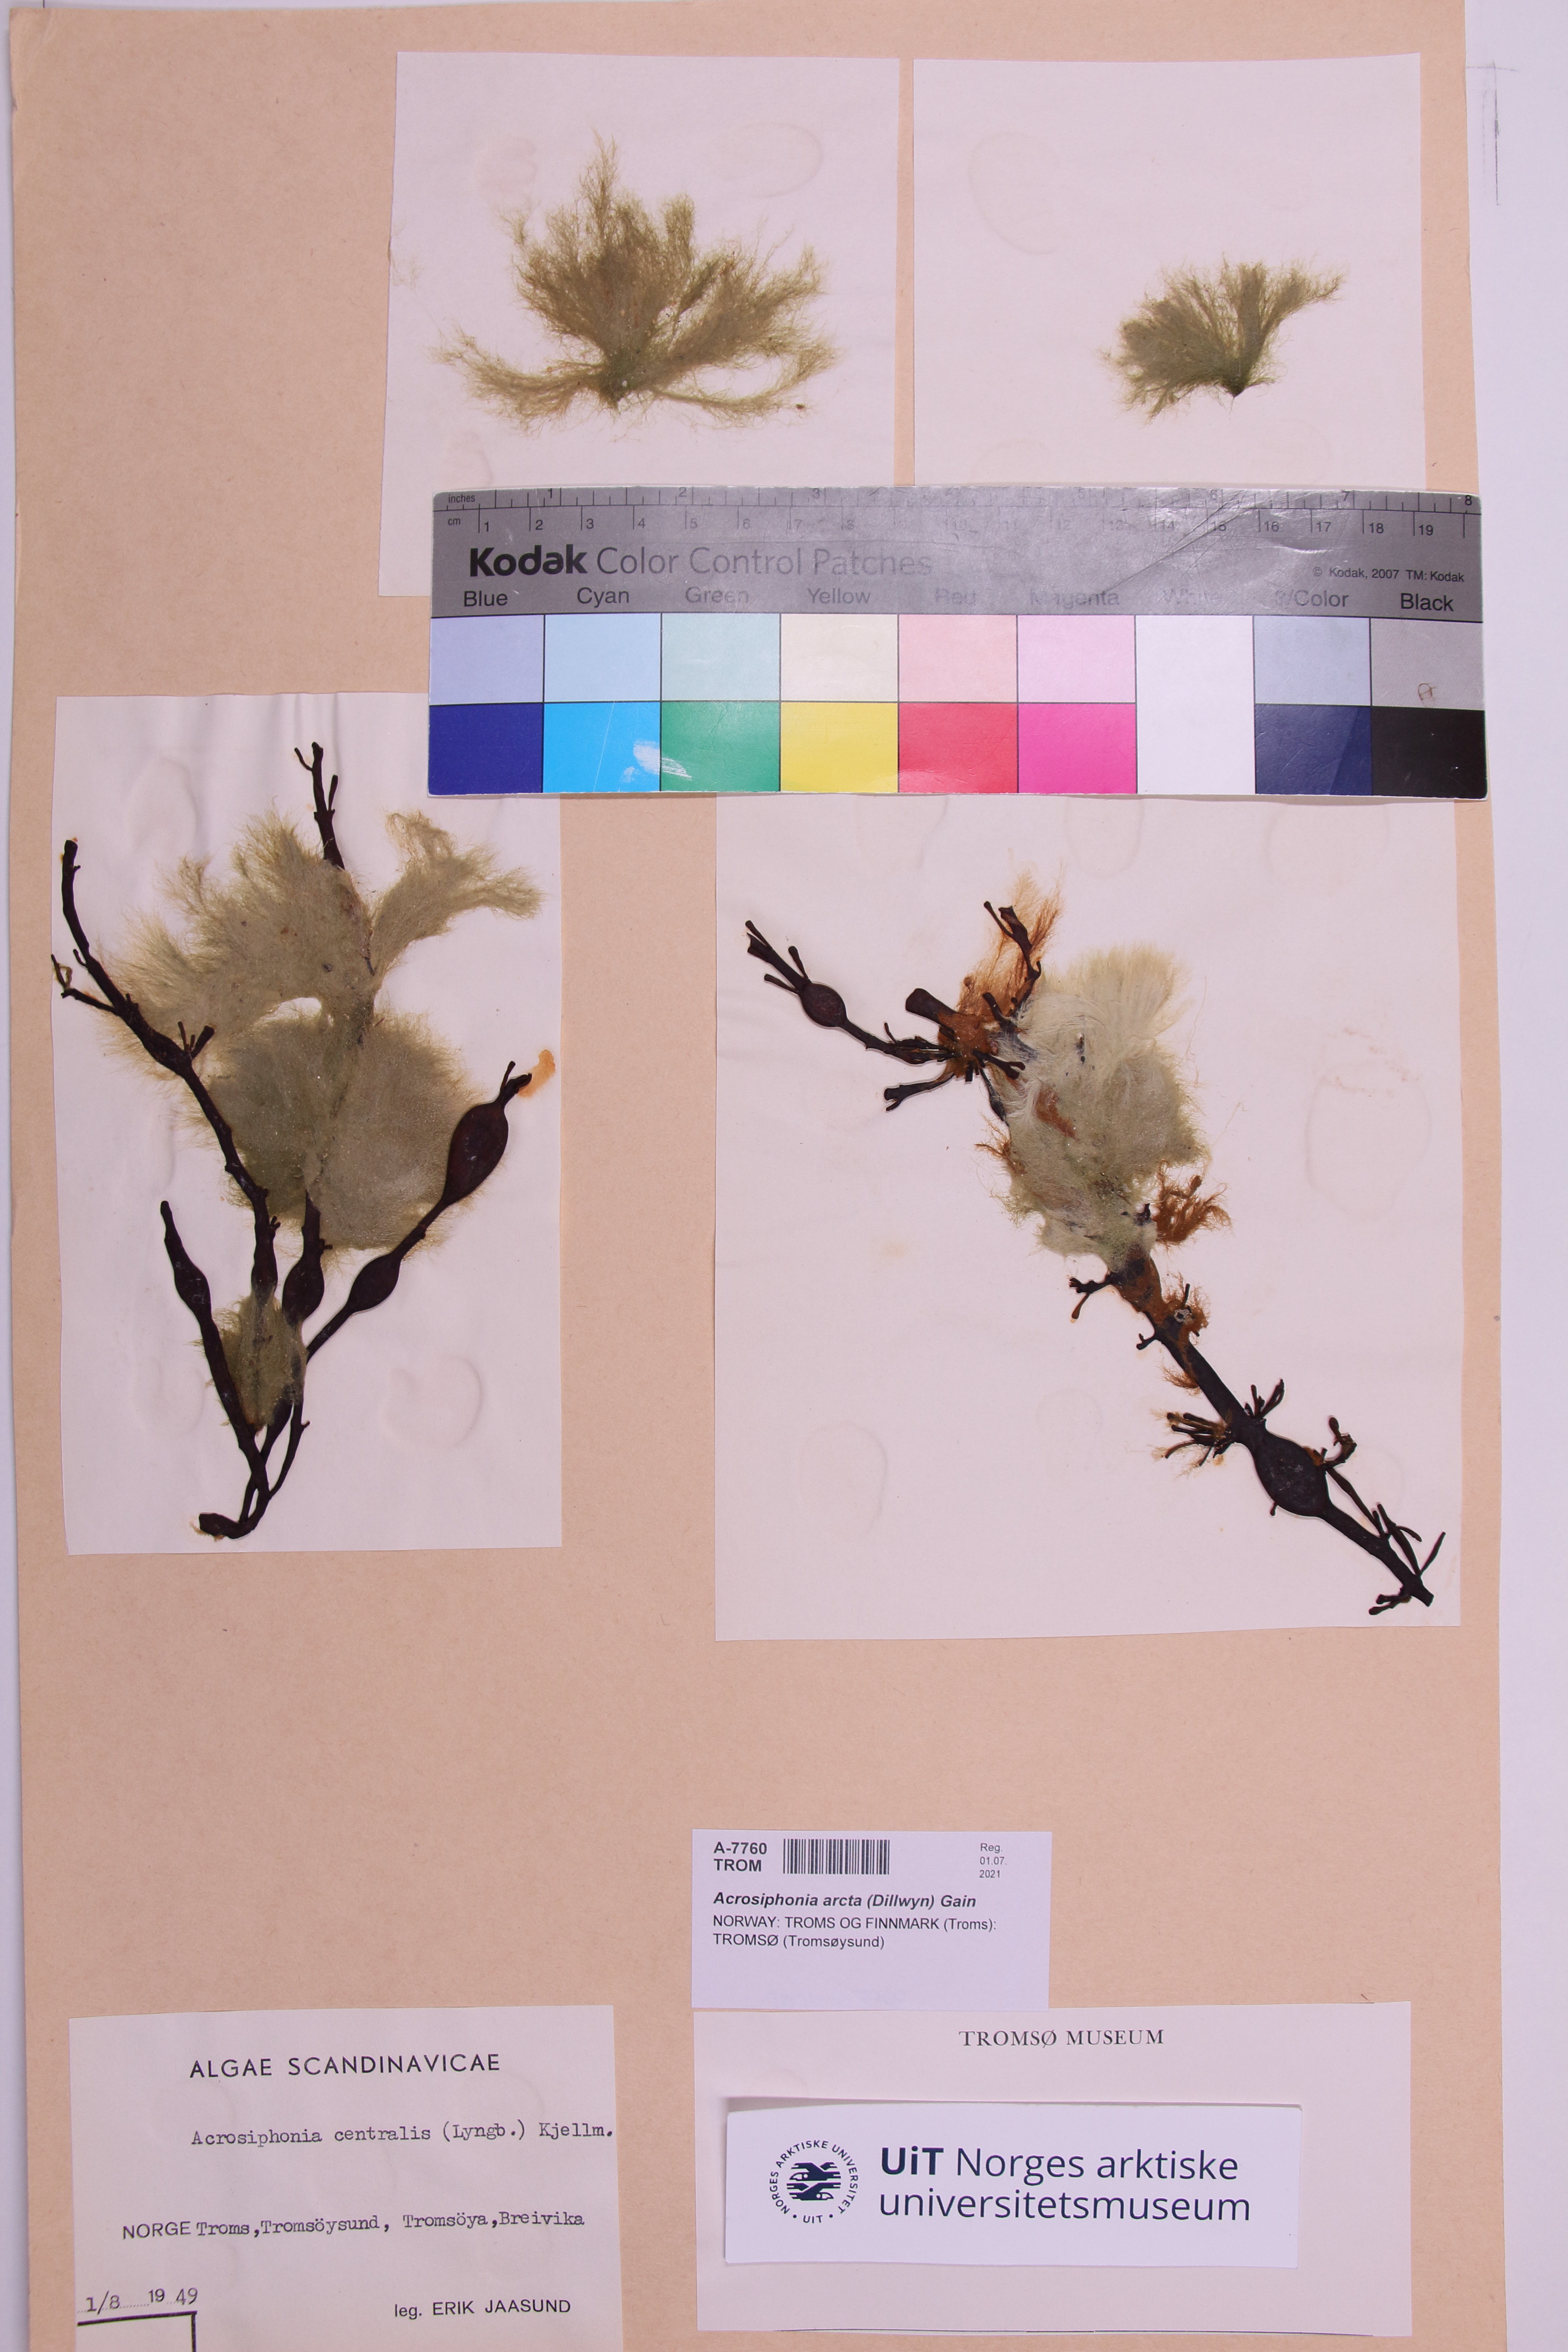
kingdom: Plantae
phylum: Chlorophyta
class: Ulvophyceae
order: Ulotrichales
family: Ulotrichaceae
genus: Acrosiphonia
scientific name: Acrosiphonia arcta
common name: Green tarantula weed
